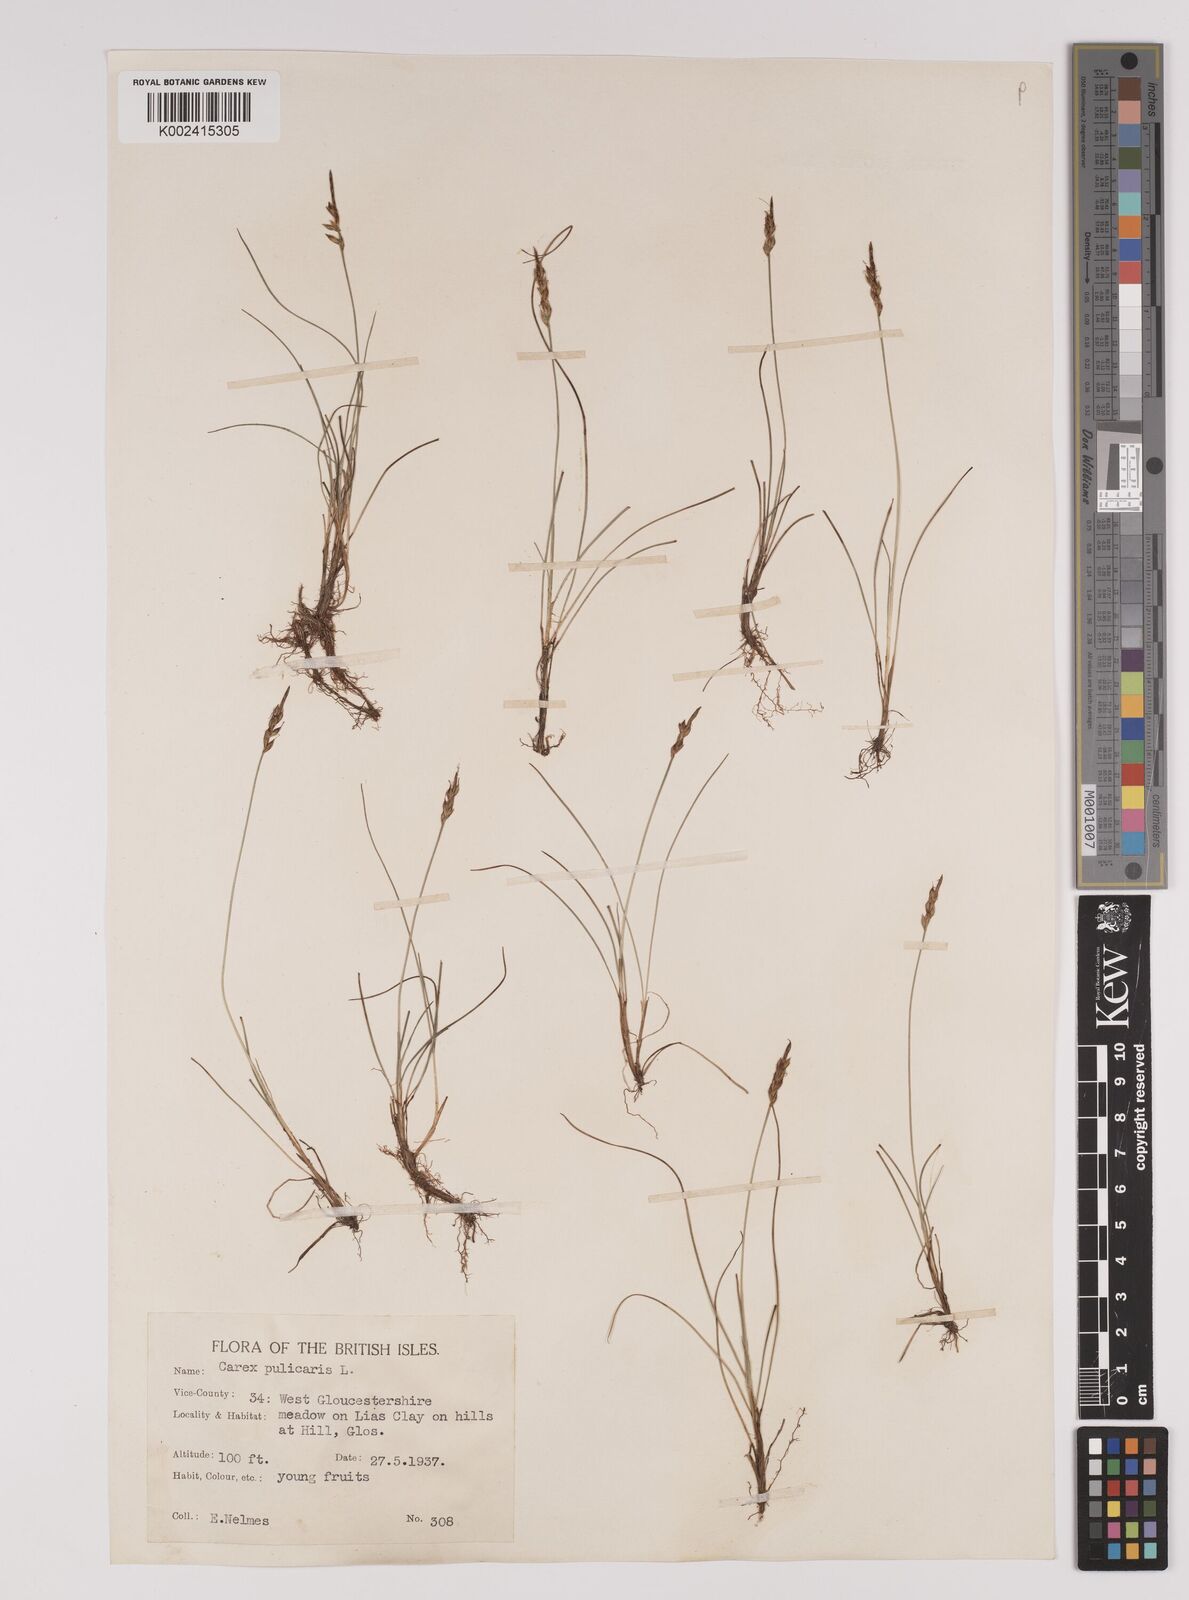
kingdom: Plantae
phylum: Tracheophyta
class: Liliopsida
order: Poales
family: Cyperaceae
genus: Carex
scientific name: Carex pulicaris
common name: Flea sedge
